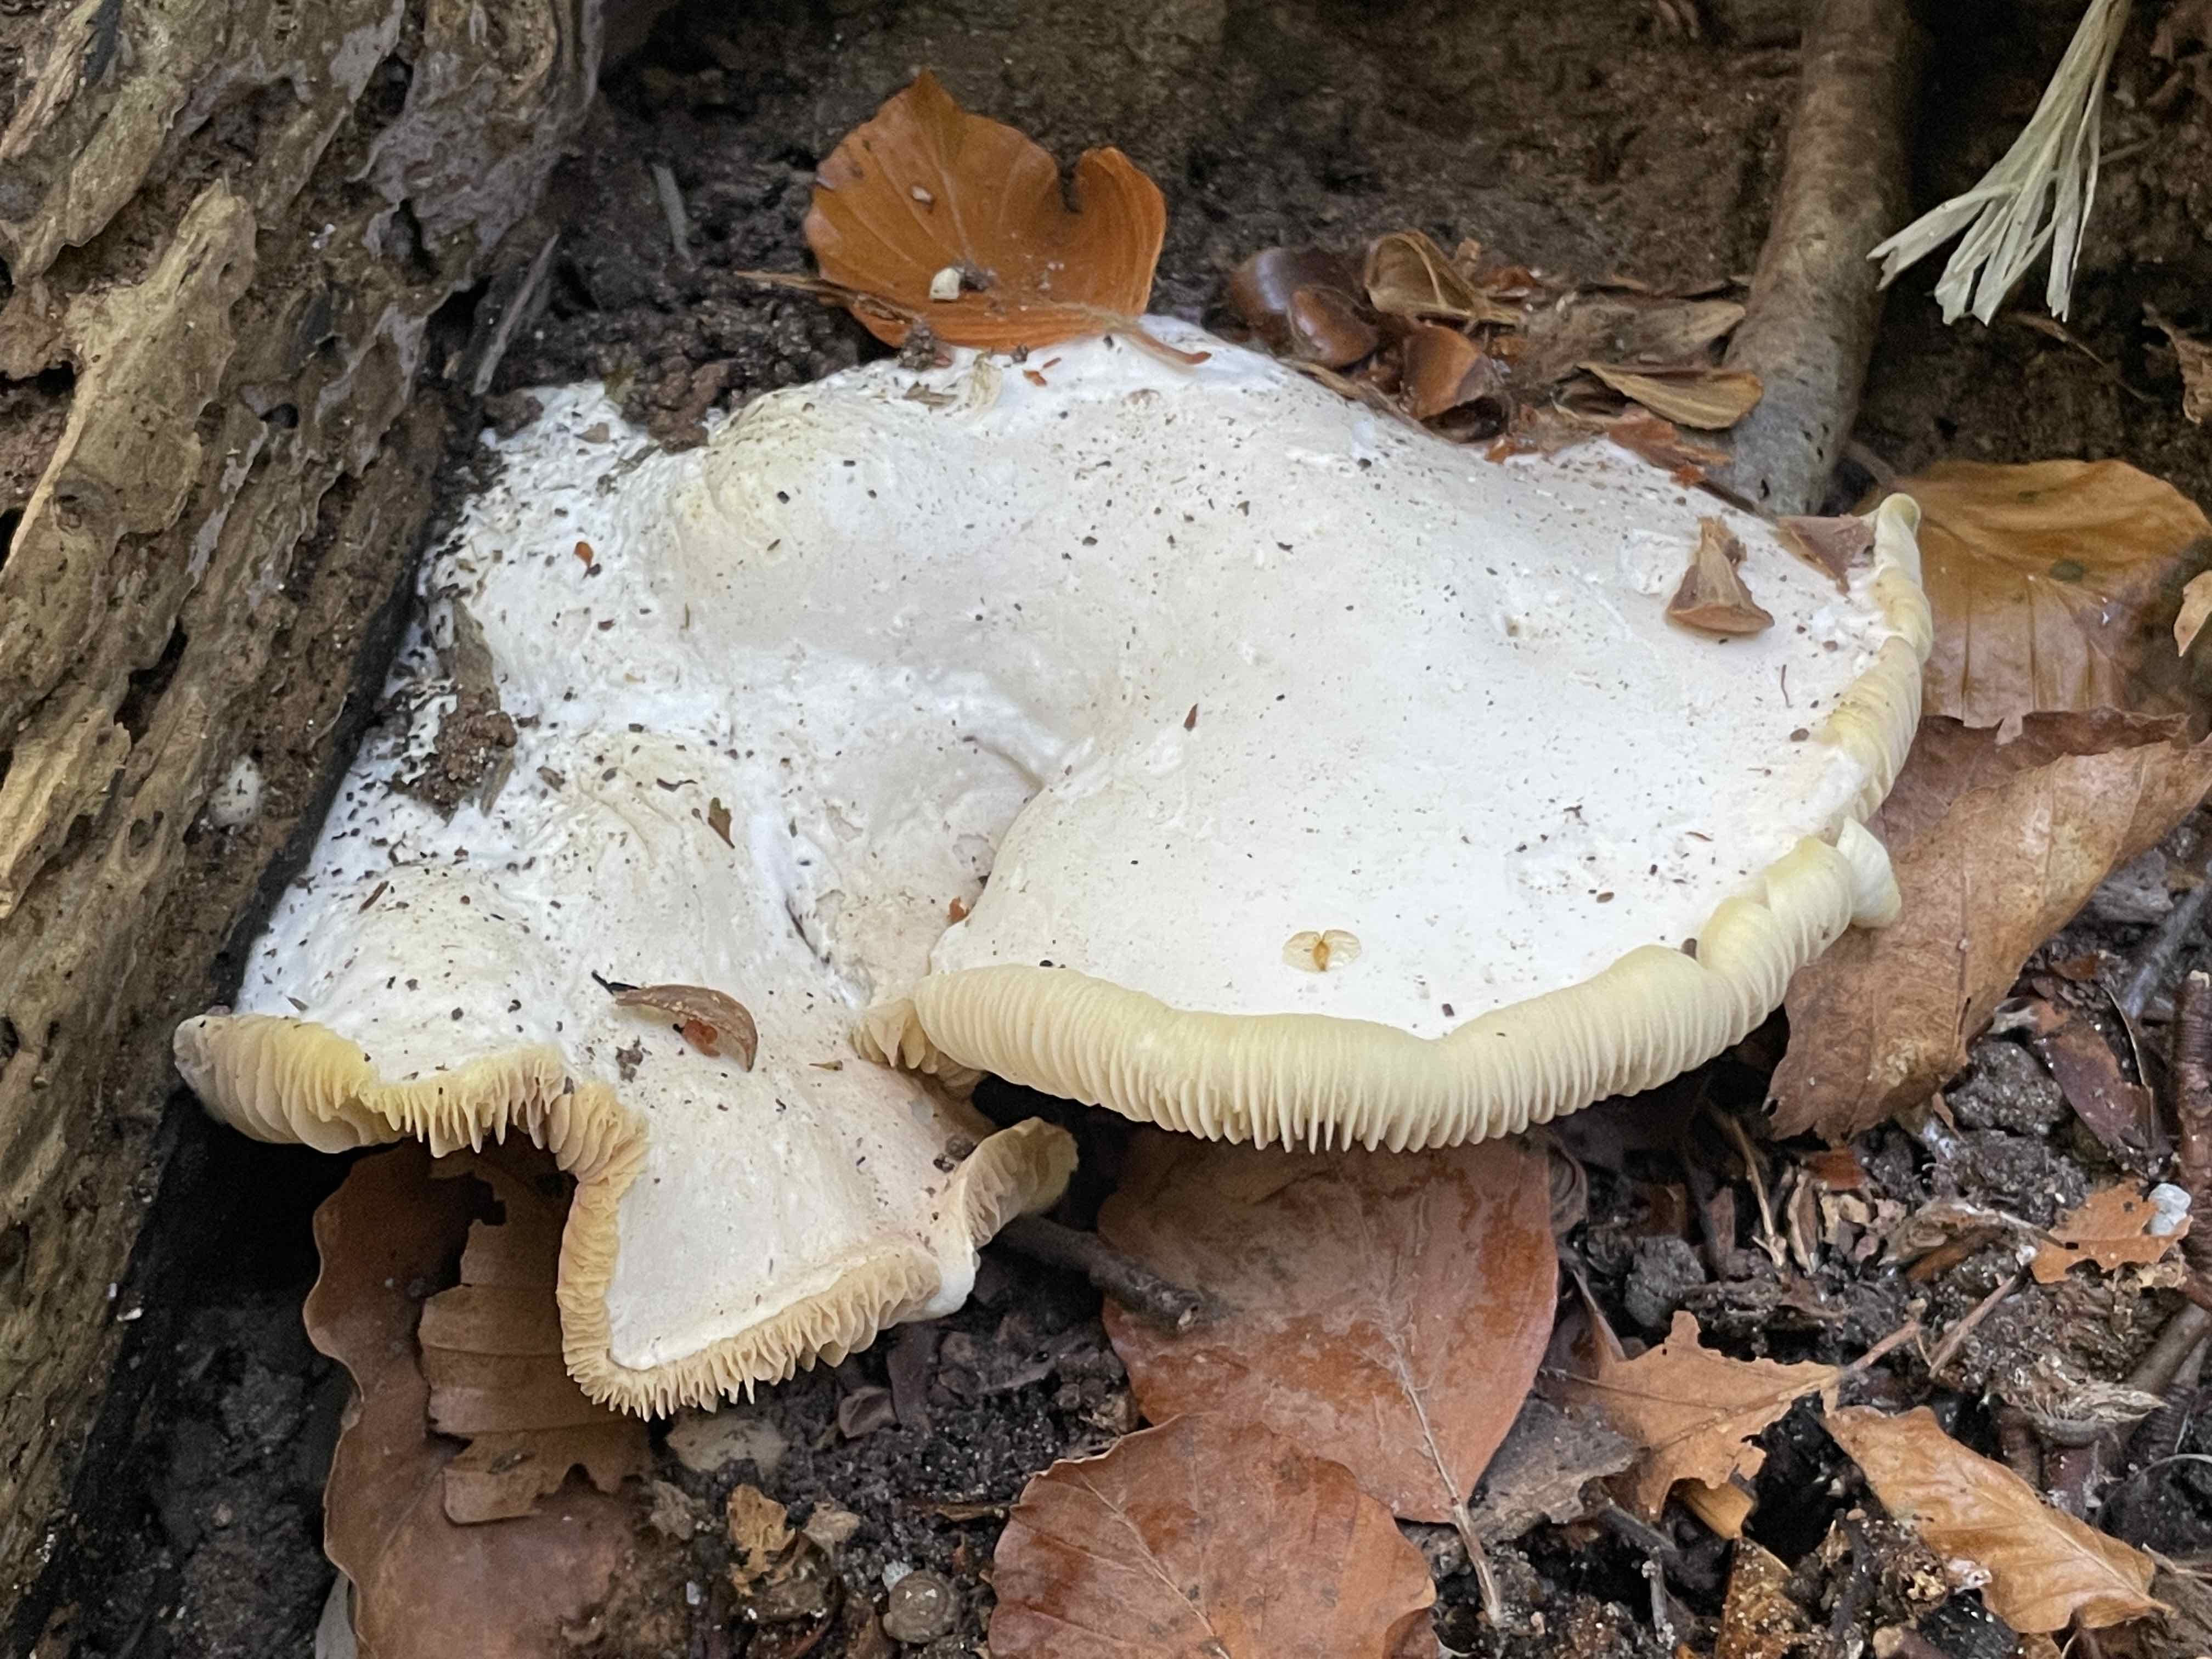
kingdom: Fungi
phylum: Basidiomycota
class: Agaricomycetes
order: Agaricales
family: Entolomataceae
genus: Clitopilus
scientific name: Clitopilus prunulus
